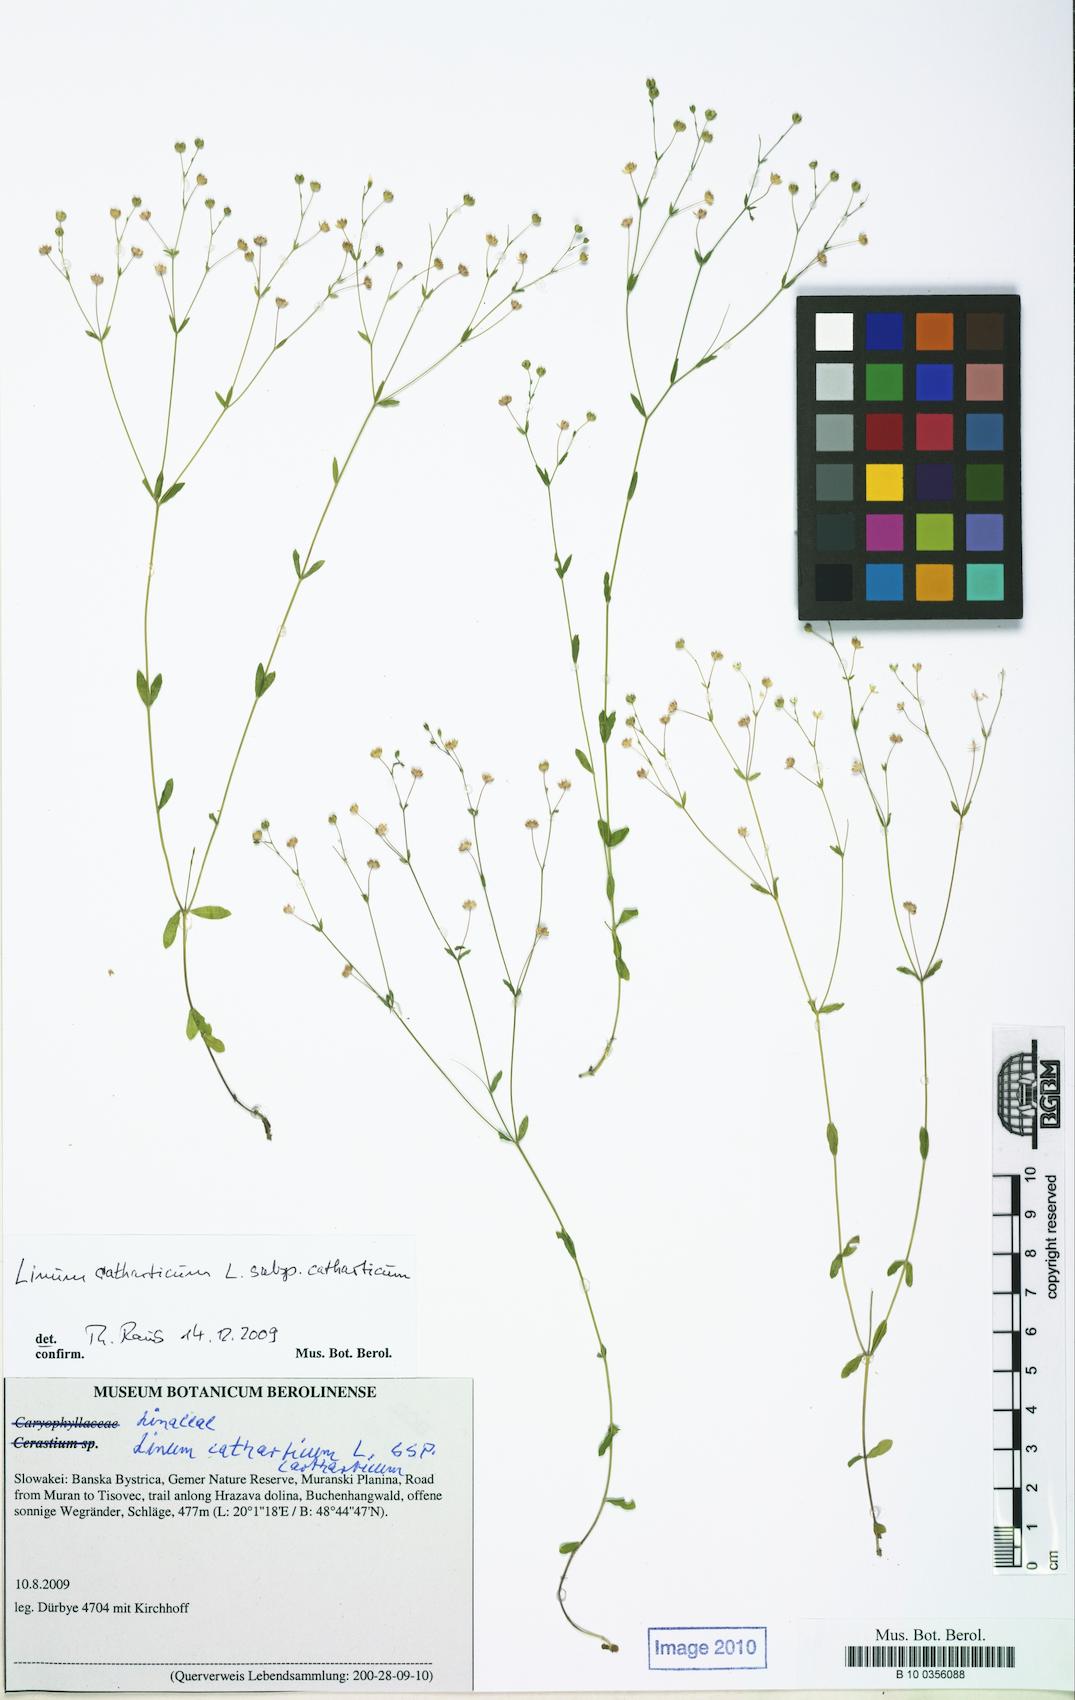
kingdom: Plantae
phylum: Tracheophyta
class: Magnoliopsida
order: Malpighiales
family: Linaceae
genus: Linum
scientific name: Linum catharticum
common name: Fairy flax
